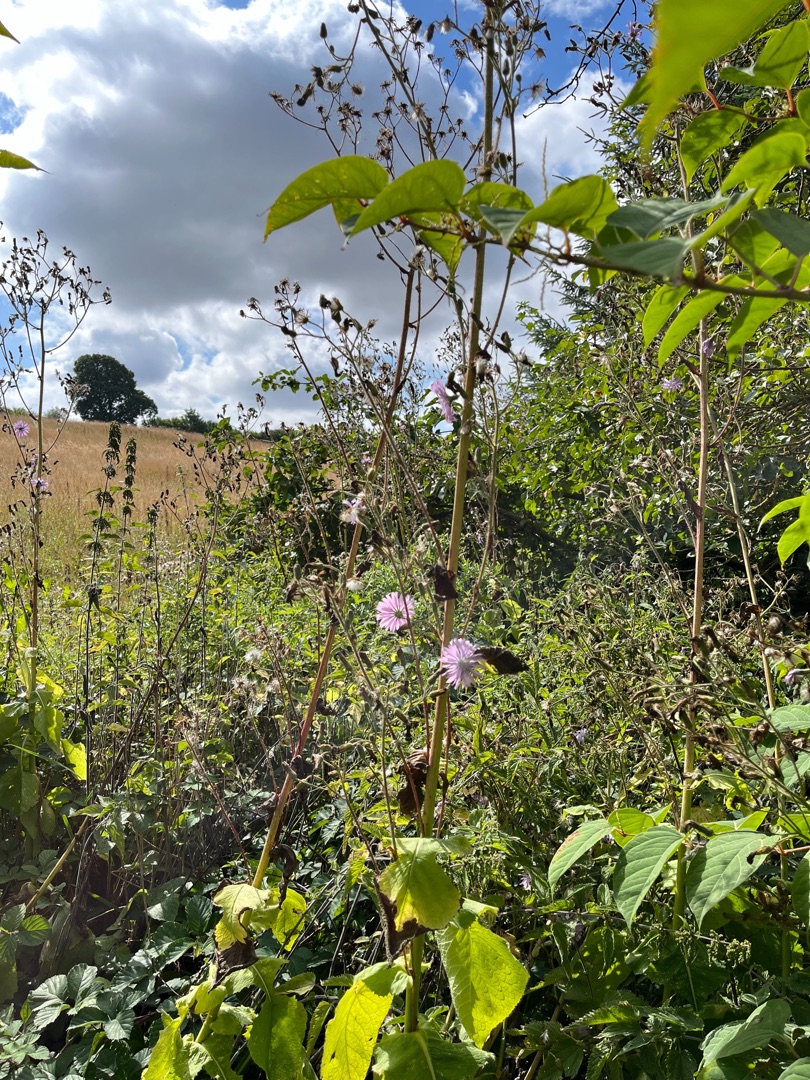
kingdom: Plantae
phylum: Tracheophyta
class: Magnoliopsida
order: Asterales
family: Asteraceae
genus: Lactuca
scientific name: Lactuca macrophylla
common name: Kæmpe-salat
